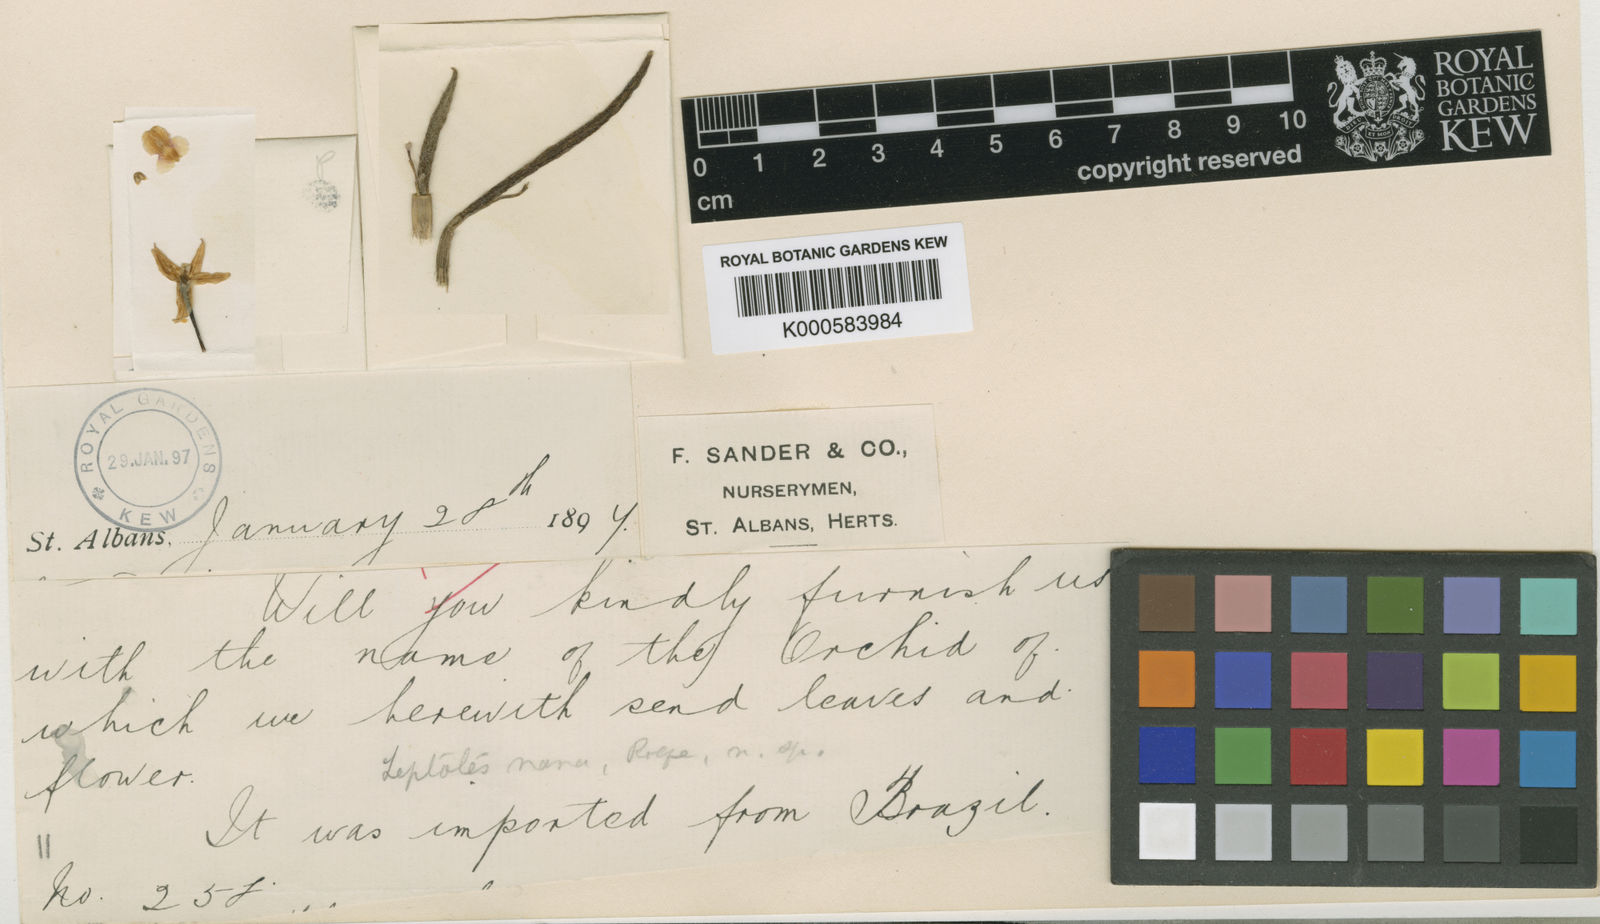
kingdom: Plantae
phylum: Tracheophyta
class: Liliopsida
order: Asparagales
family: Orchidaceae
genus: Leptotes
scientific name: Leptotes
